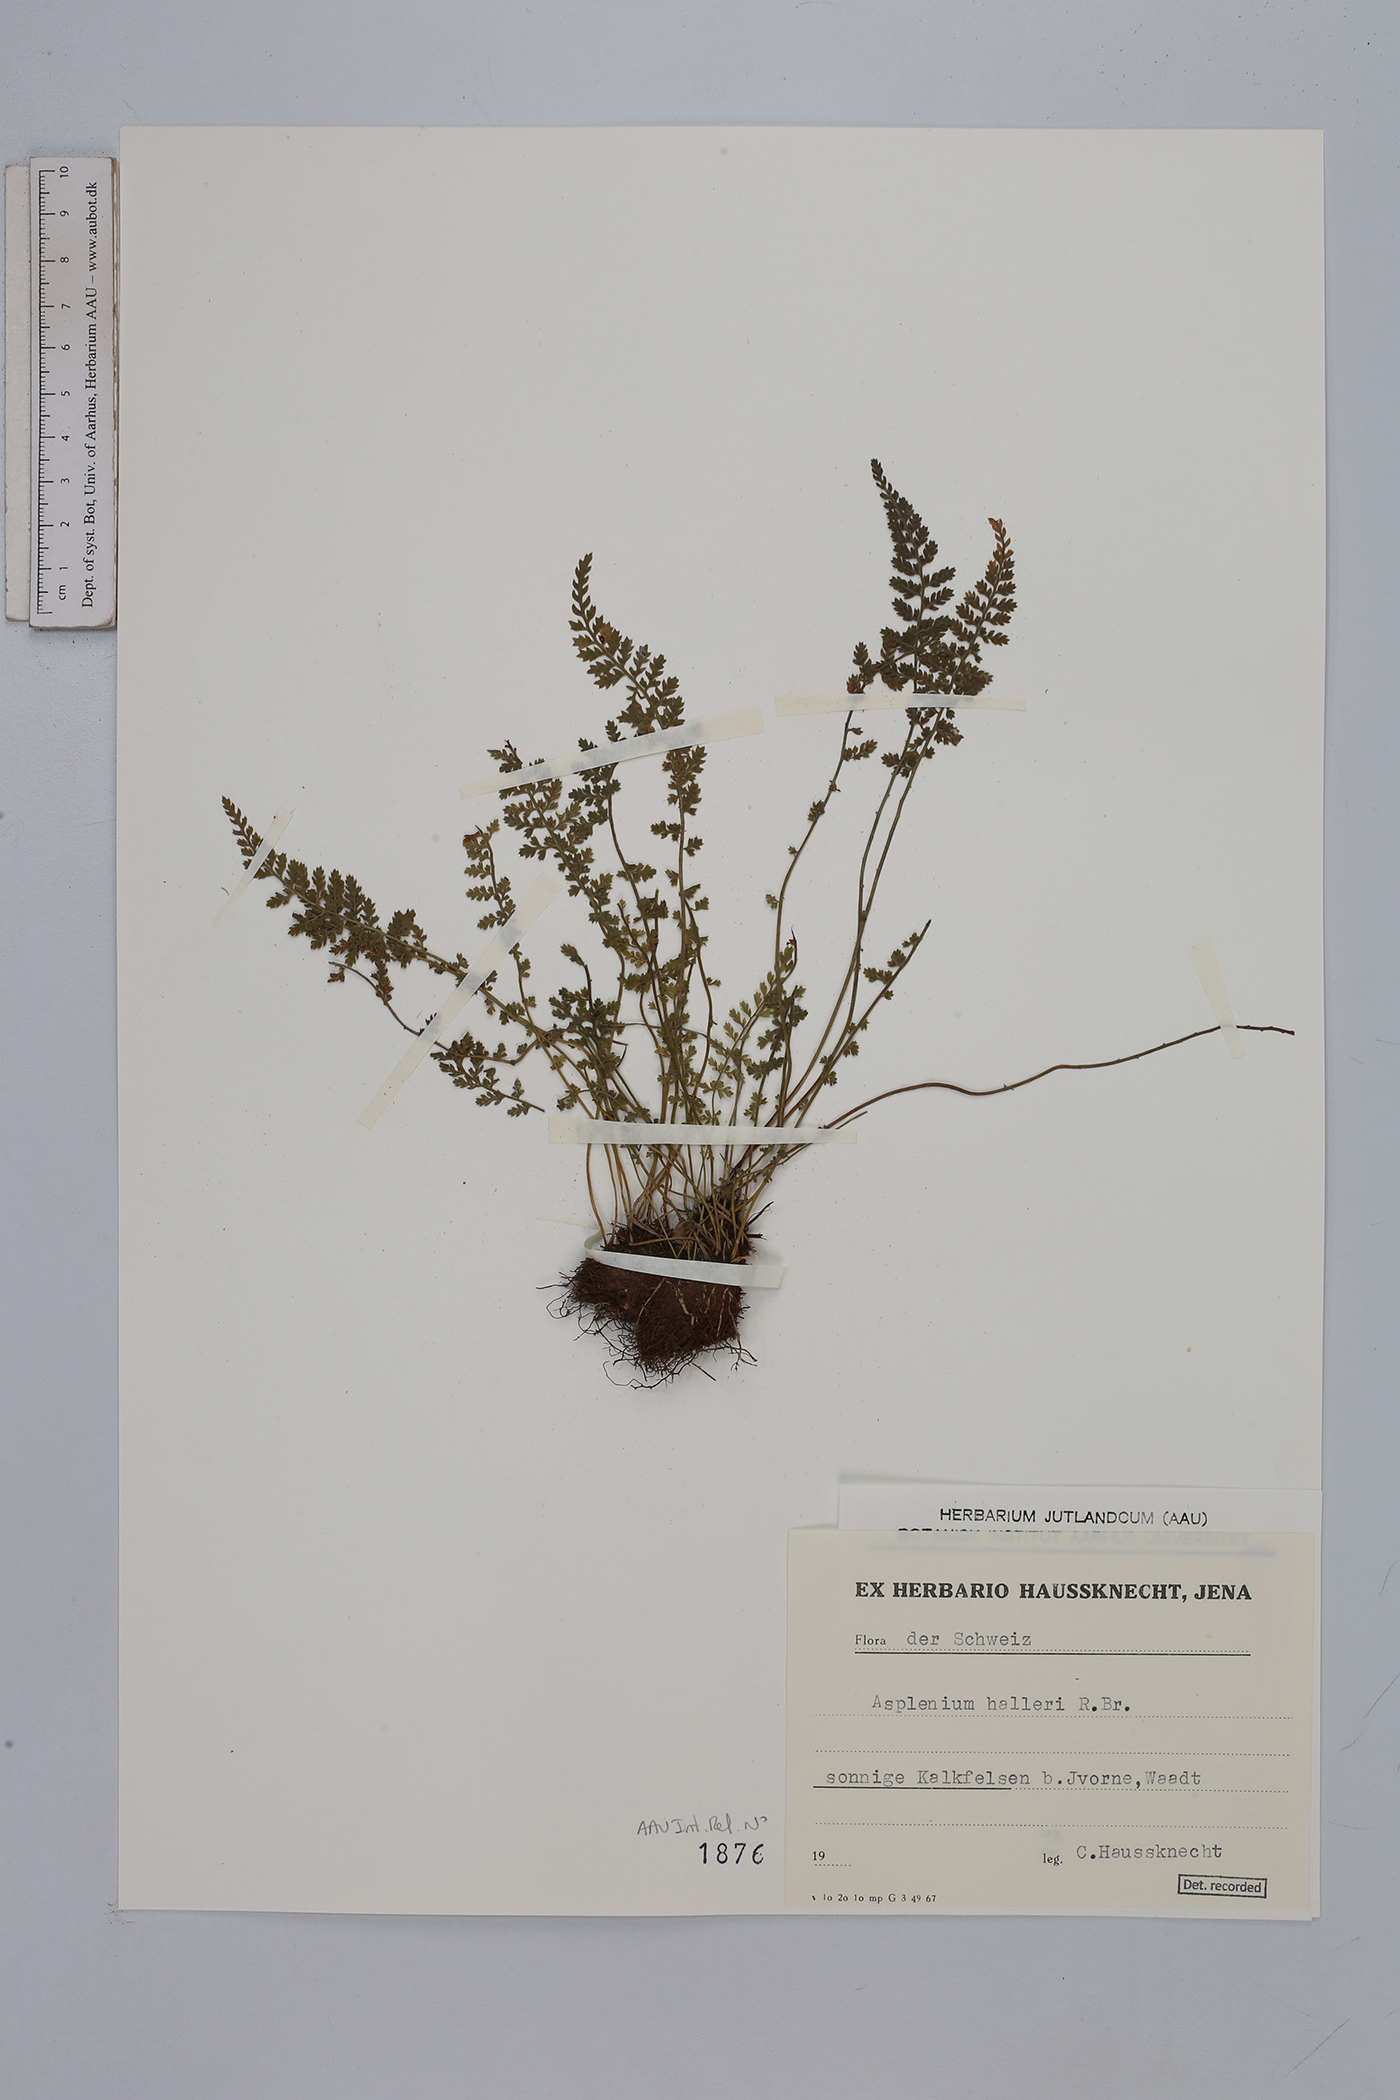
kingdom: Plantae
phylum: Tracheophyta
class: Polypodiopsida
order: Polypodiales
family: Aspleniaceae
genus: Asplenium
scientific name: Asplenium fontanum
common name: Fountain spleenwort
